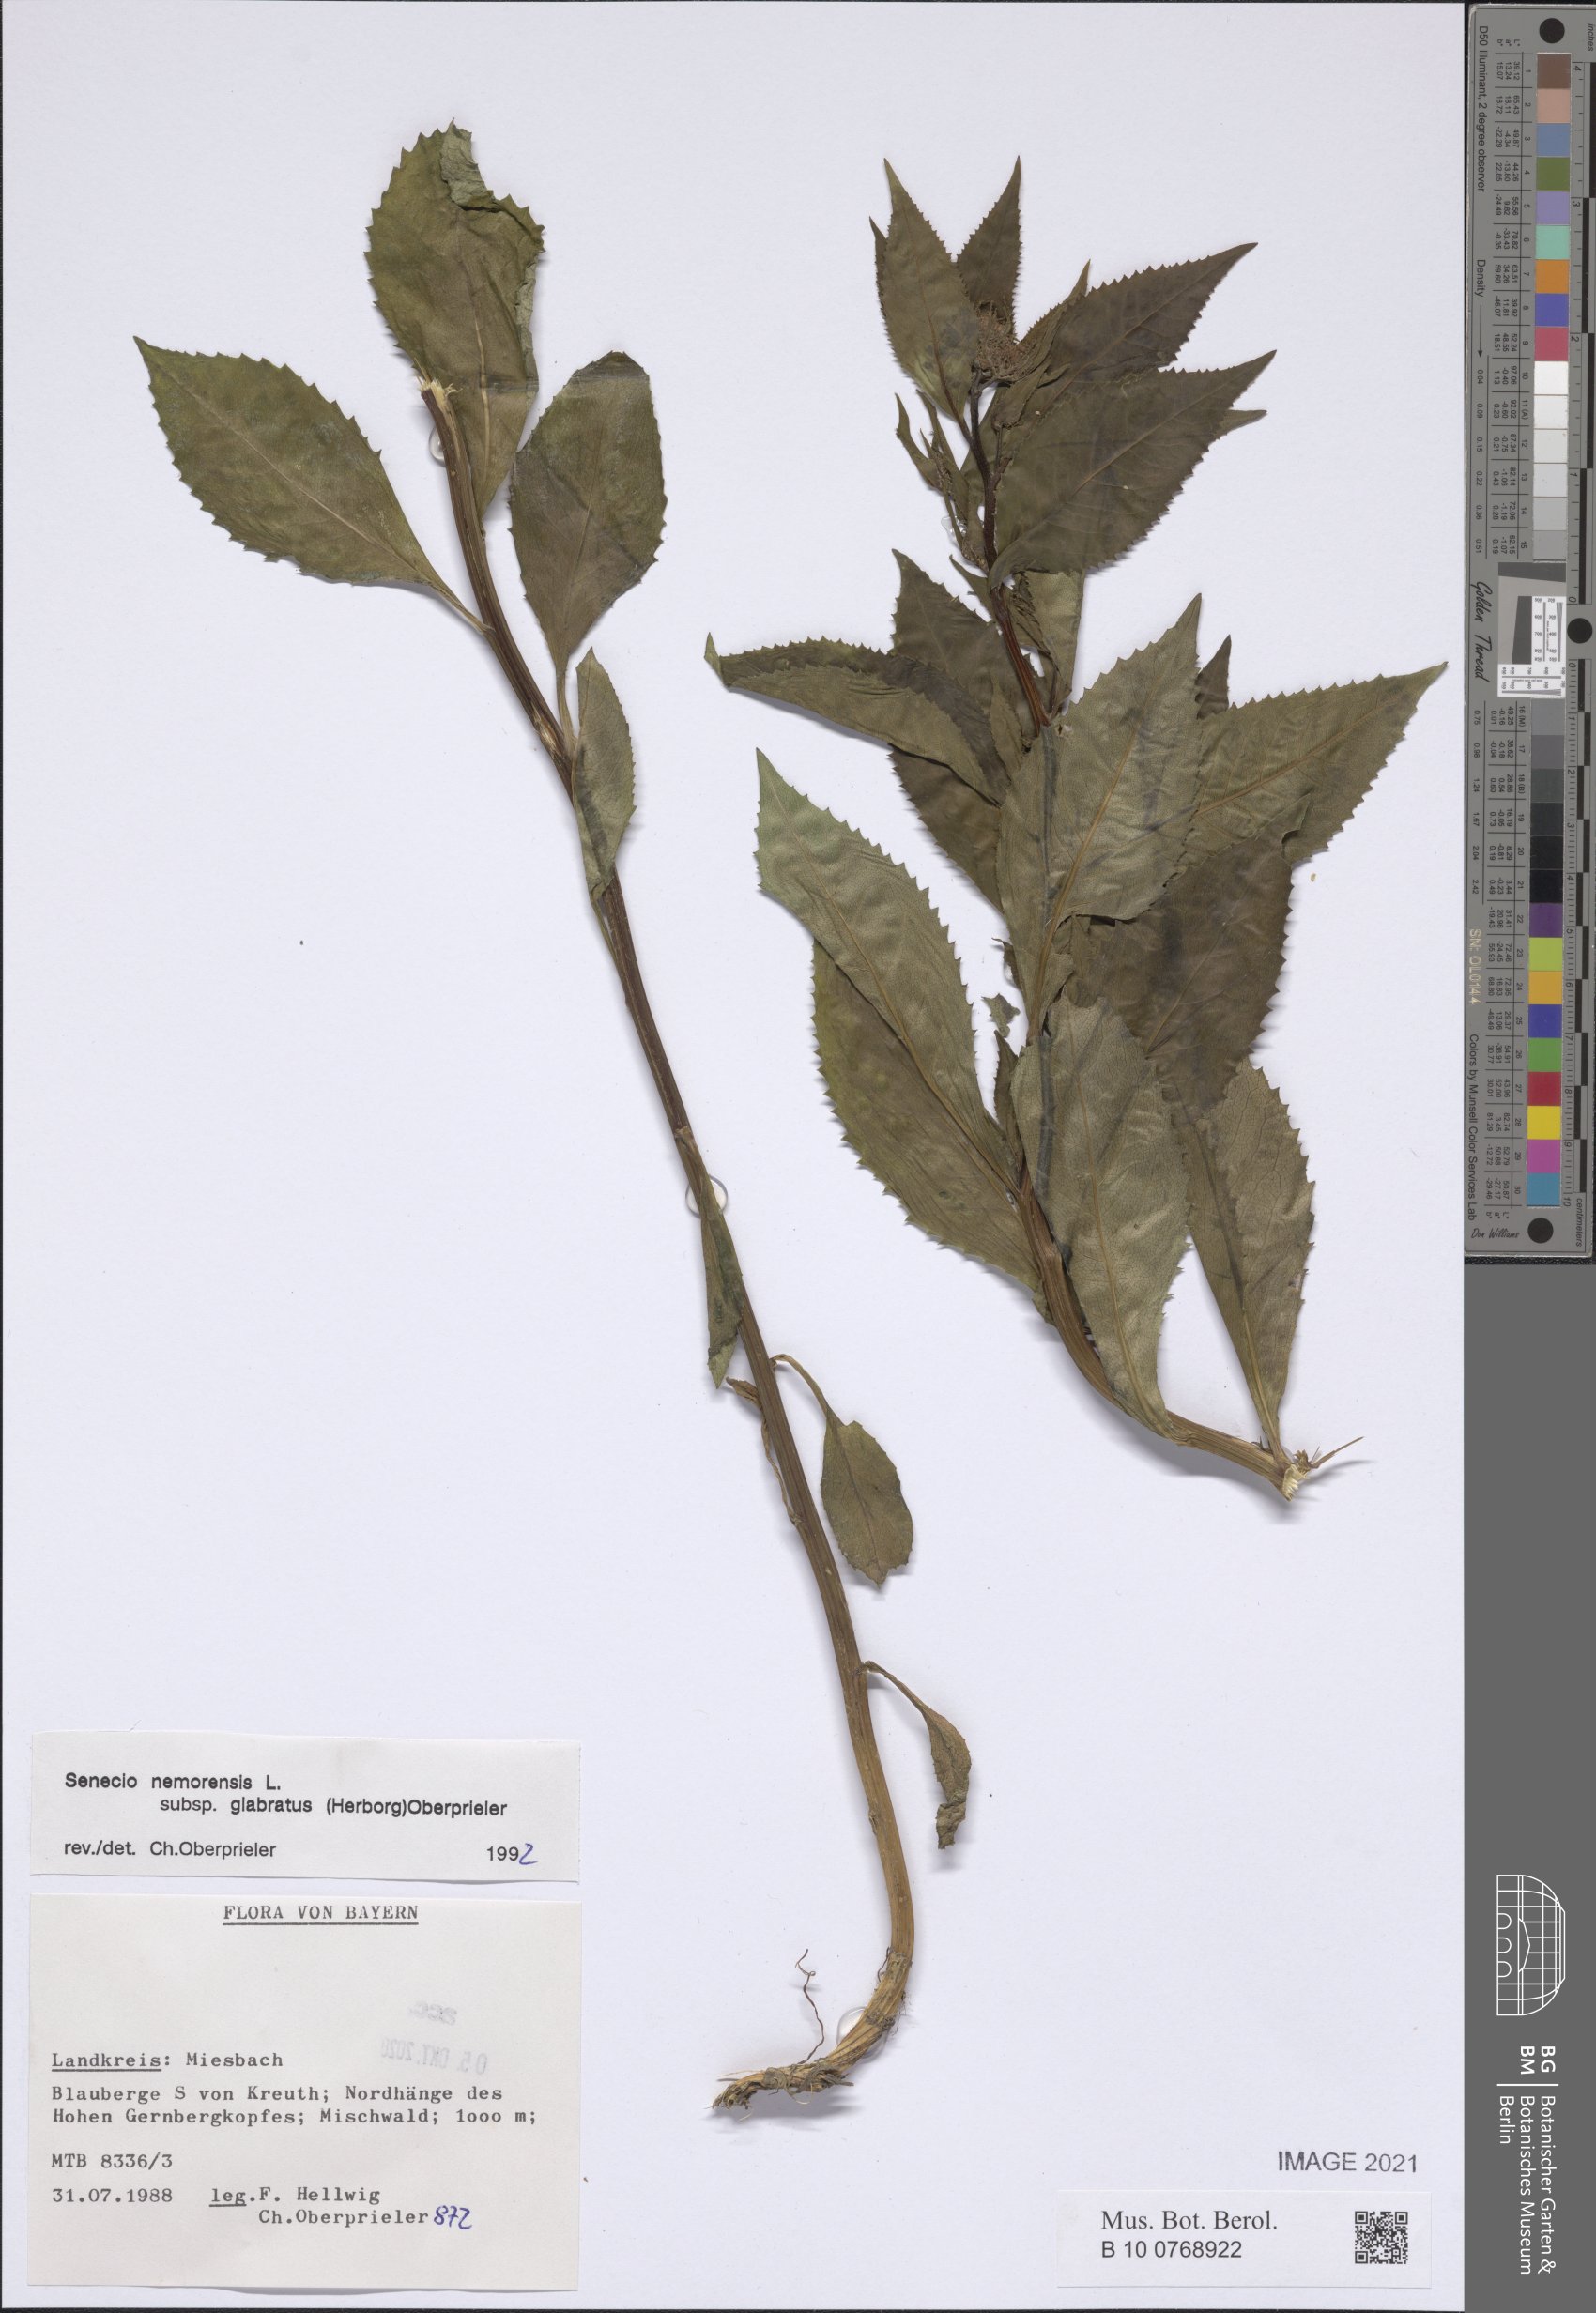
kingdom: Plantae
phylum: Tracheophyta
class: Magnoliopsida
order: Asterales
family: Asteraceae
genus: Senecio
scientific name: Senecio germanicus
